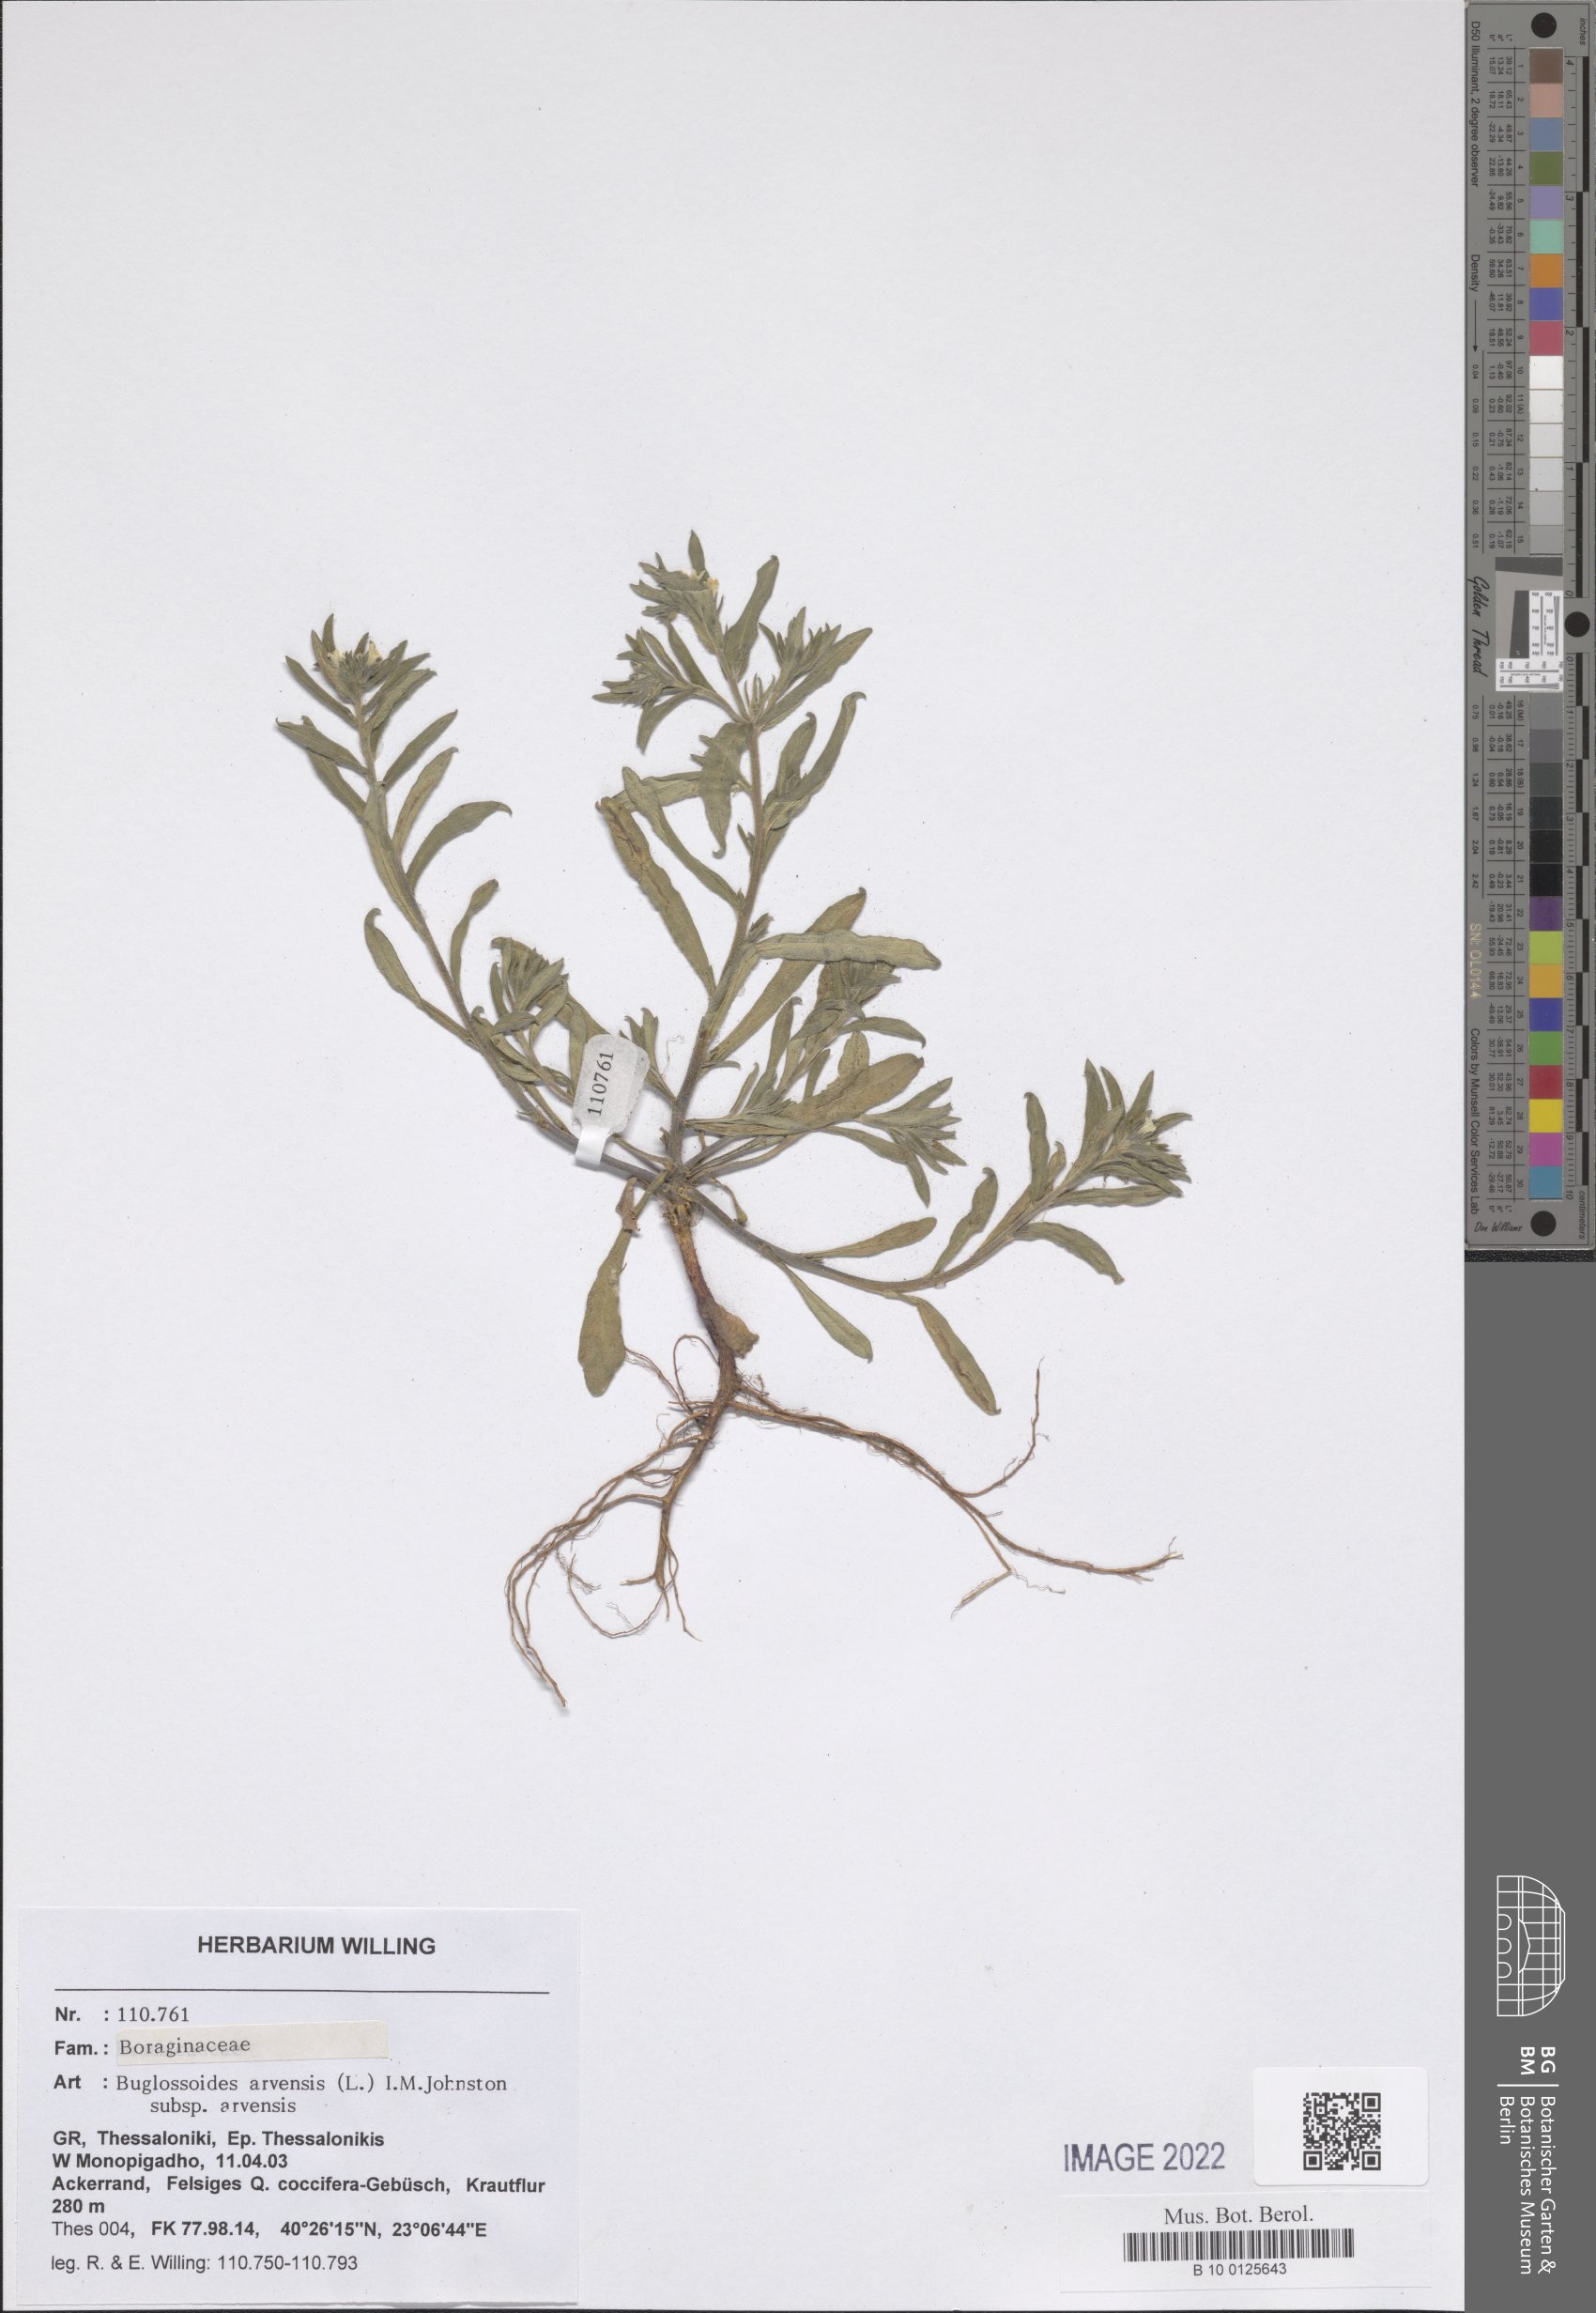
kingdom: Plantae
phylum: Tracheophyta
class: Magnoliopsida
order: Boraginales
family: Boraginaceae
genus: Buglossoides
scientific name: Buglossoides arvensis
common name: Corn gromwell
